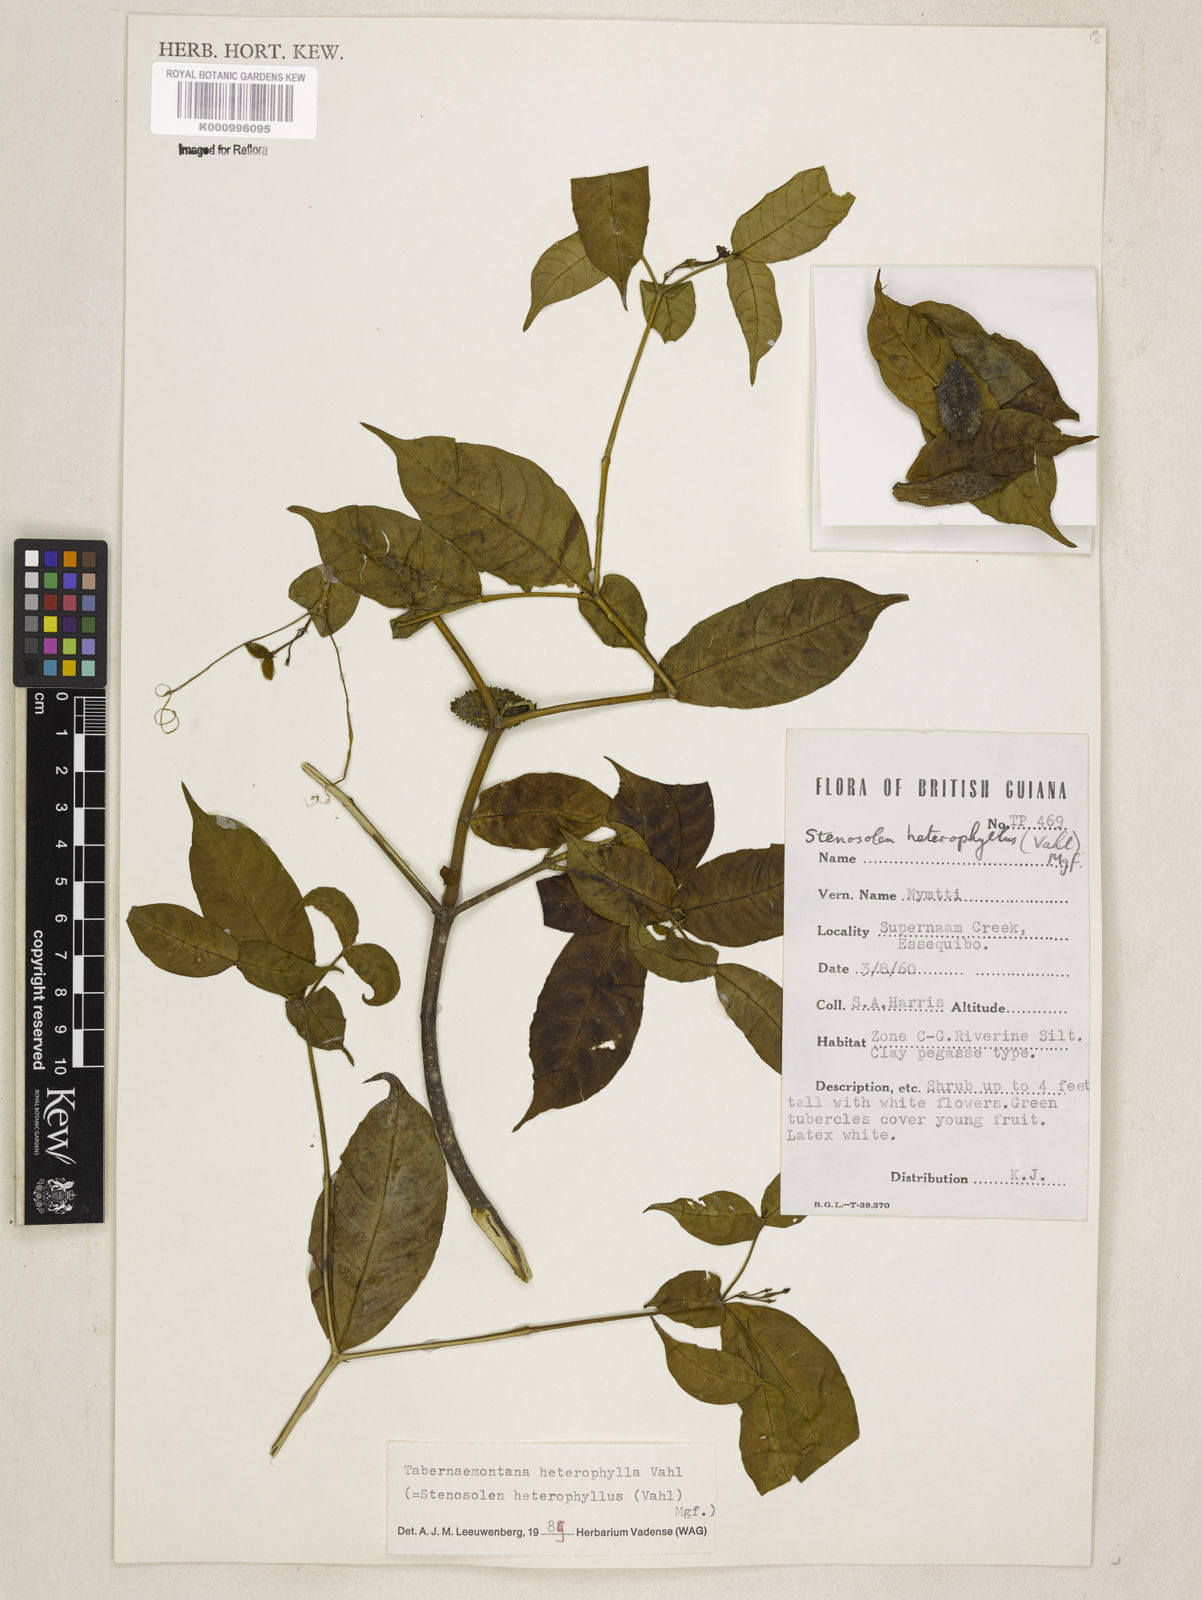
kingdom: Plantae
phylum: Tracheophyta
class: Magnoliopsida
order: Gentianales
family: Apocynaceae
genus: Tabernaemontana
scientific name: Tabernaemontana heterophylla
